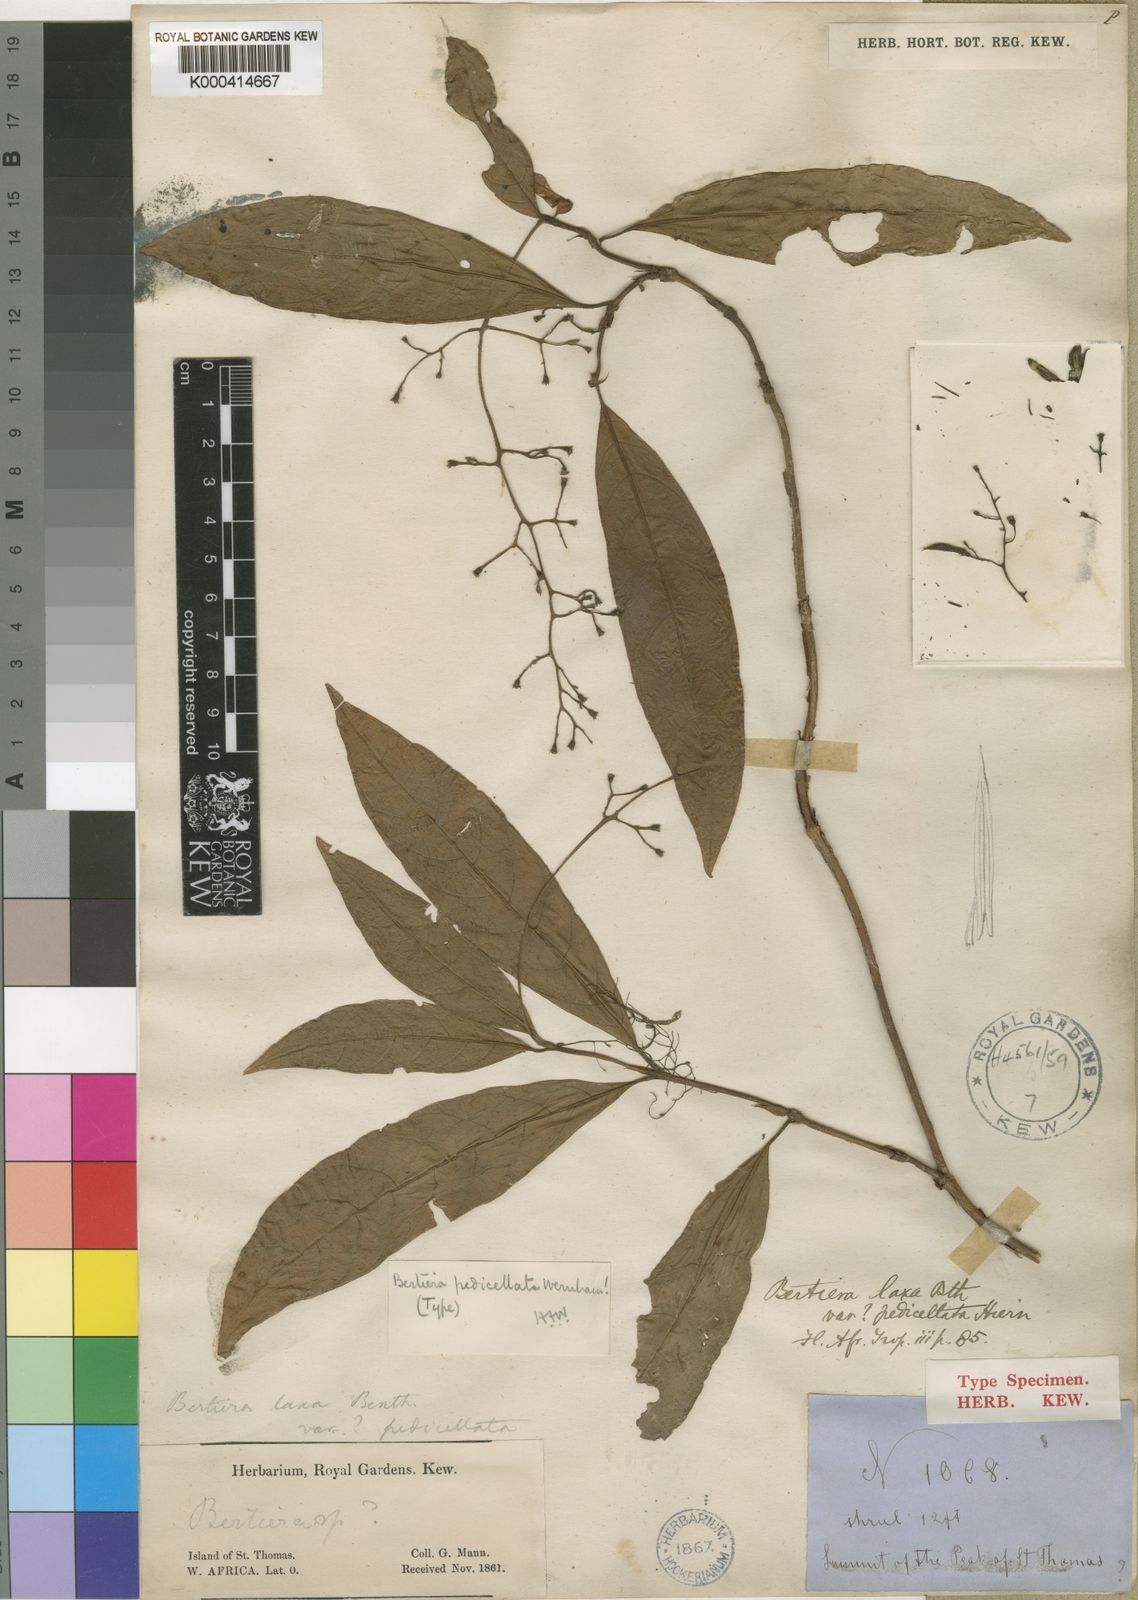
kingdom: Plantae
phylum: Tracheophyta
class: Magnoliopsida
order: Gentianales
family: Rubiaceae
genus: Bertiera
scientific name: Bertiera pedicellata
